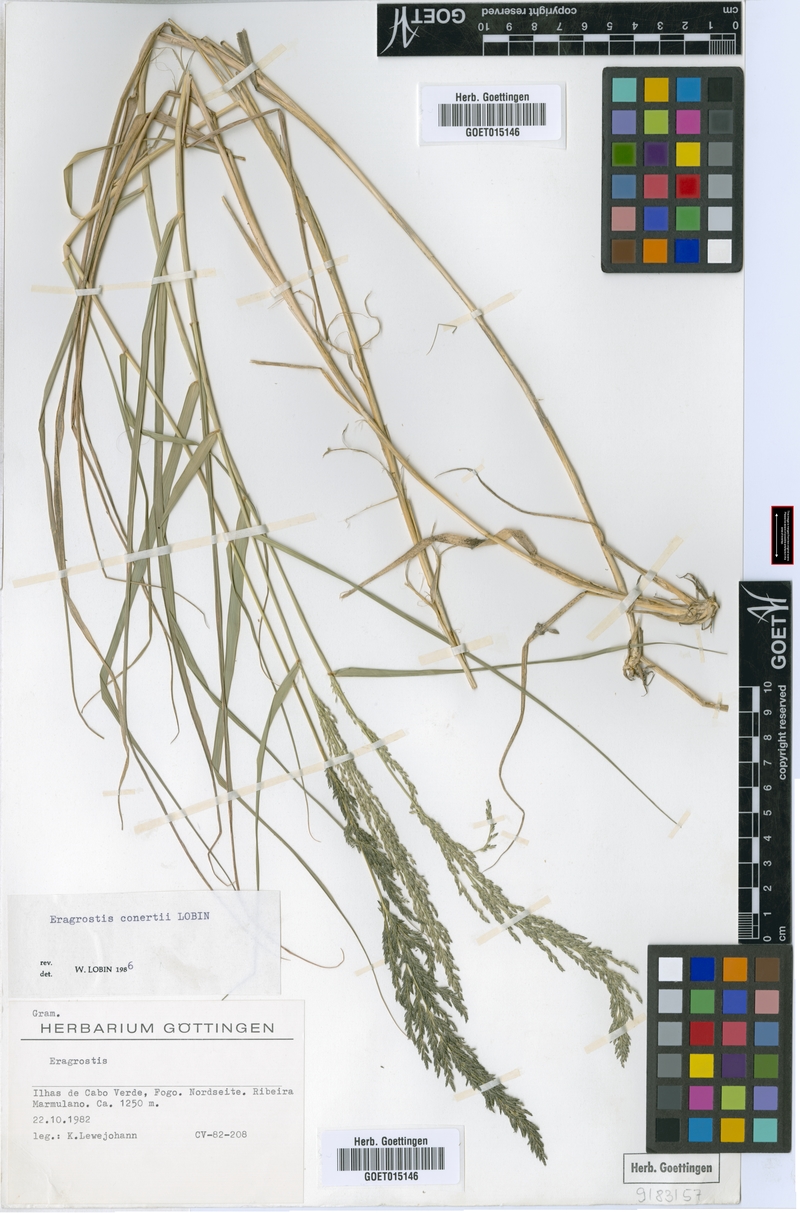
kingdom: Plantae
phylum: Tracheophyta
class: Liliopsida
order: Poales
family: Poaceae
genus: Eragrostis
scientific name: Eragrostis conertii
